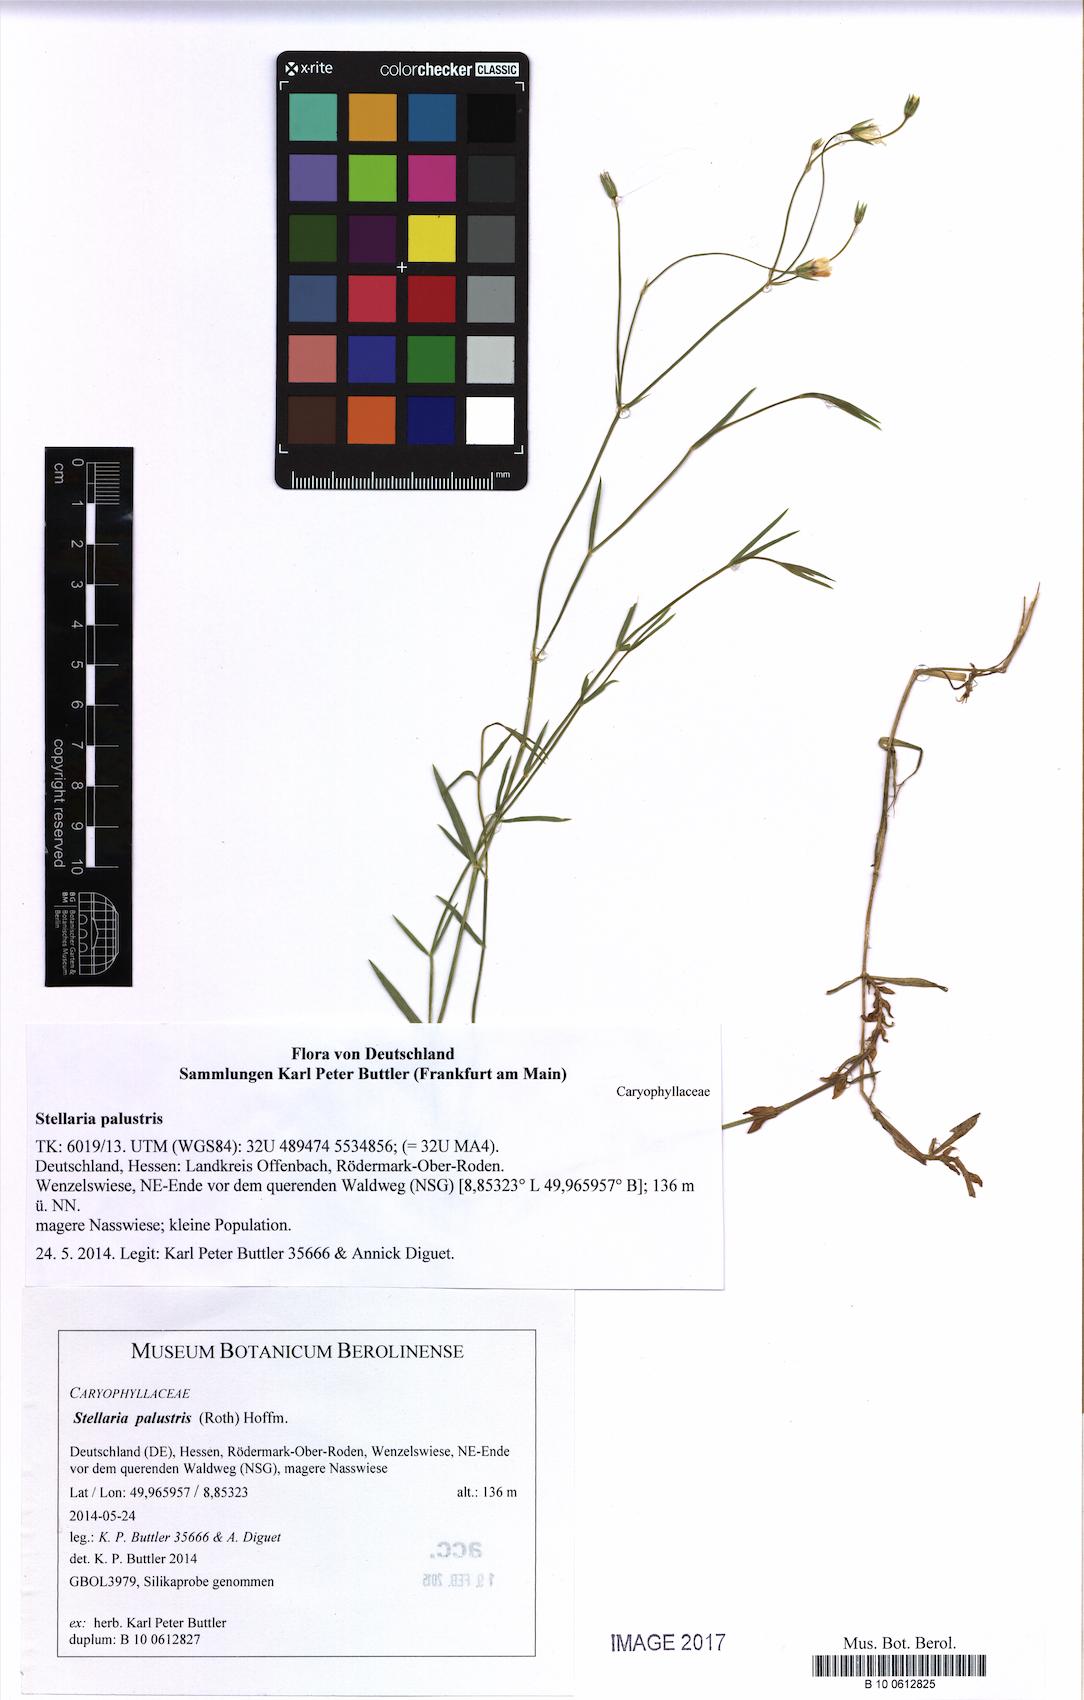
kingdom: Plantae
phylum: Tracheophyta
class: Magnoliopsida
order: Caryophyllales
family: Caryophyllaceae
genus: Stellaria
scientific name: Stellaria palustris
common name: Marsh stitchwort
